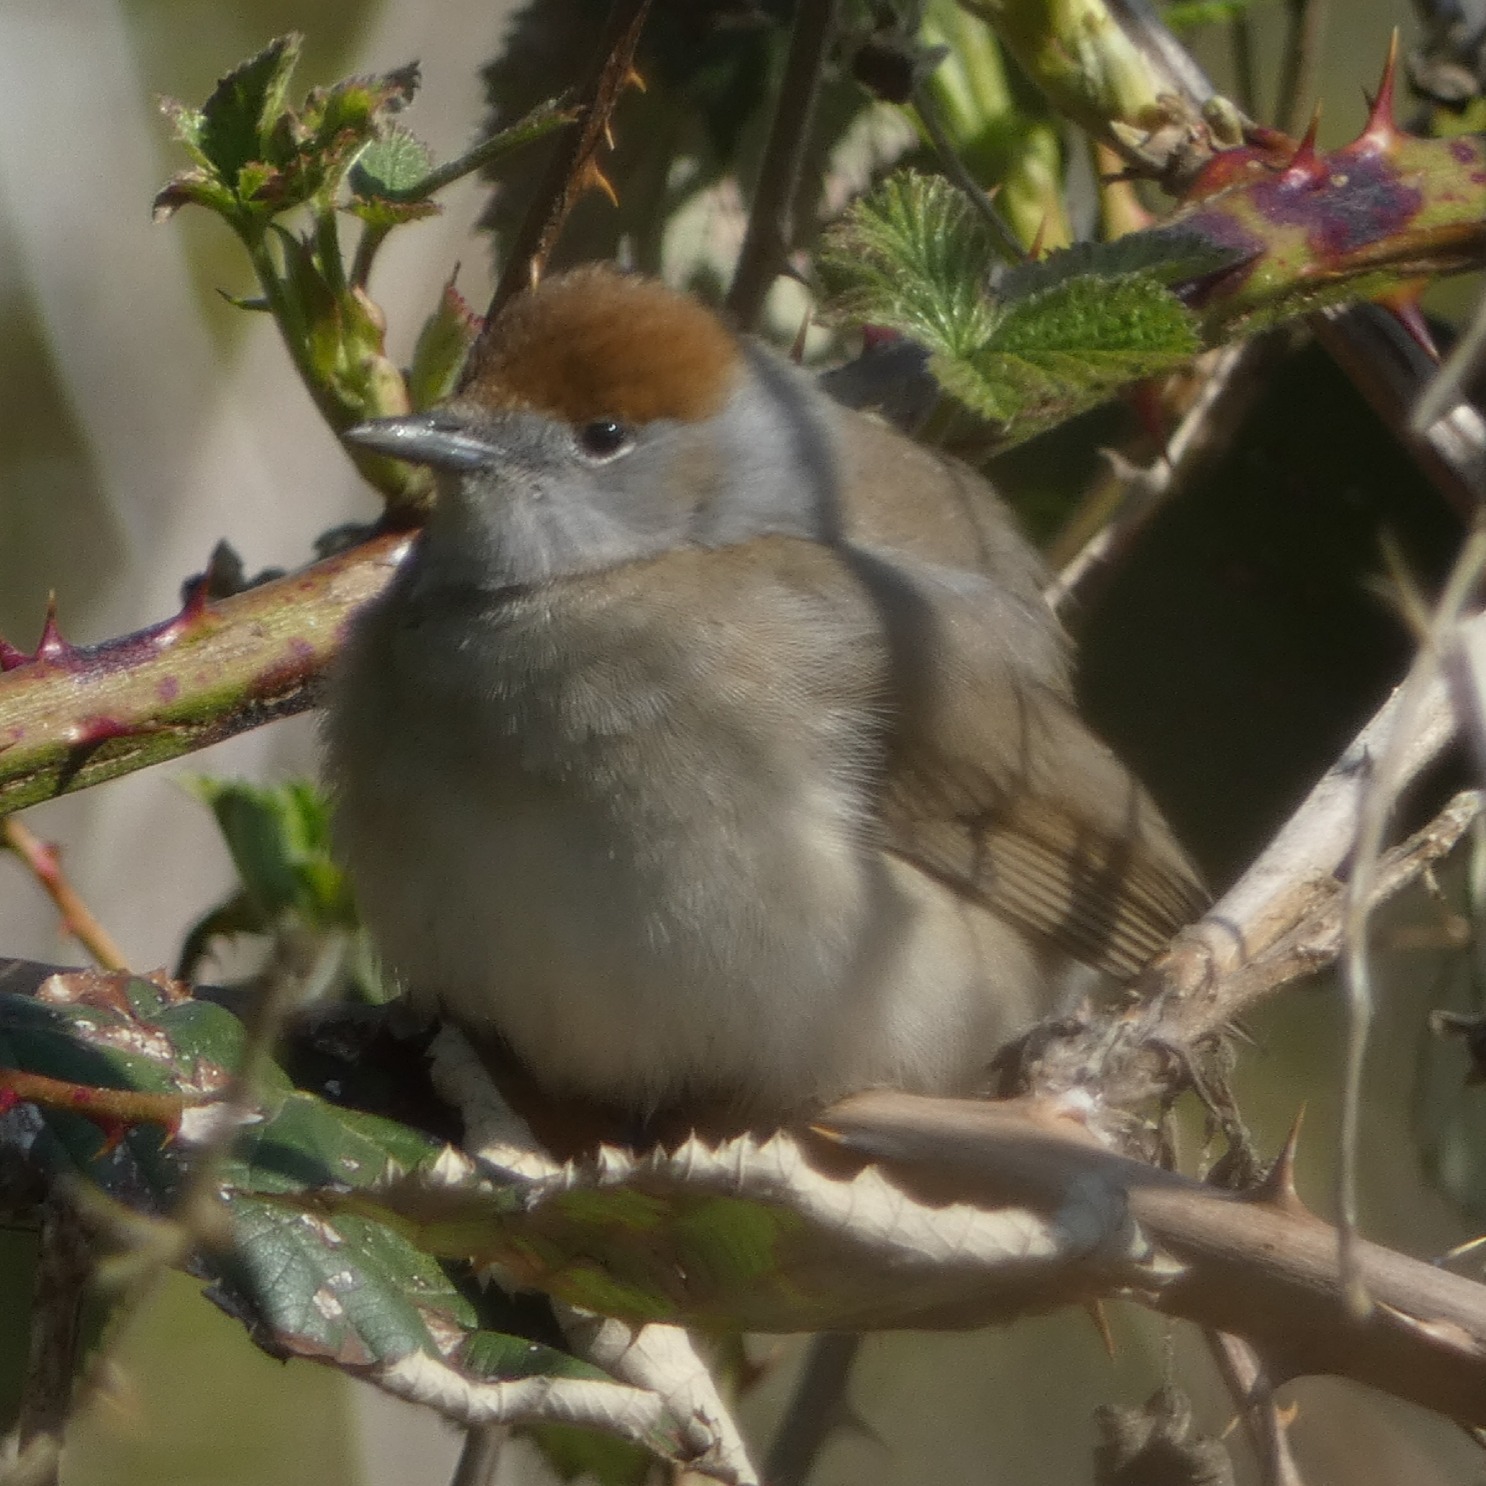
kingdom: Animalia
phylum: Chordata
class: Aves
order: Passeriformes
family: Sylviidae
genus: Sylvia
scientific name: Sylvia atricapilla
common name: Munk
